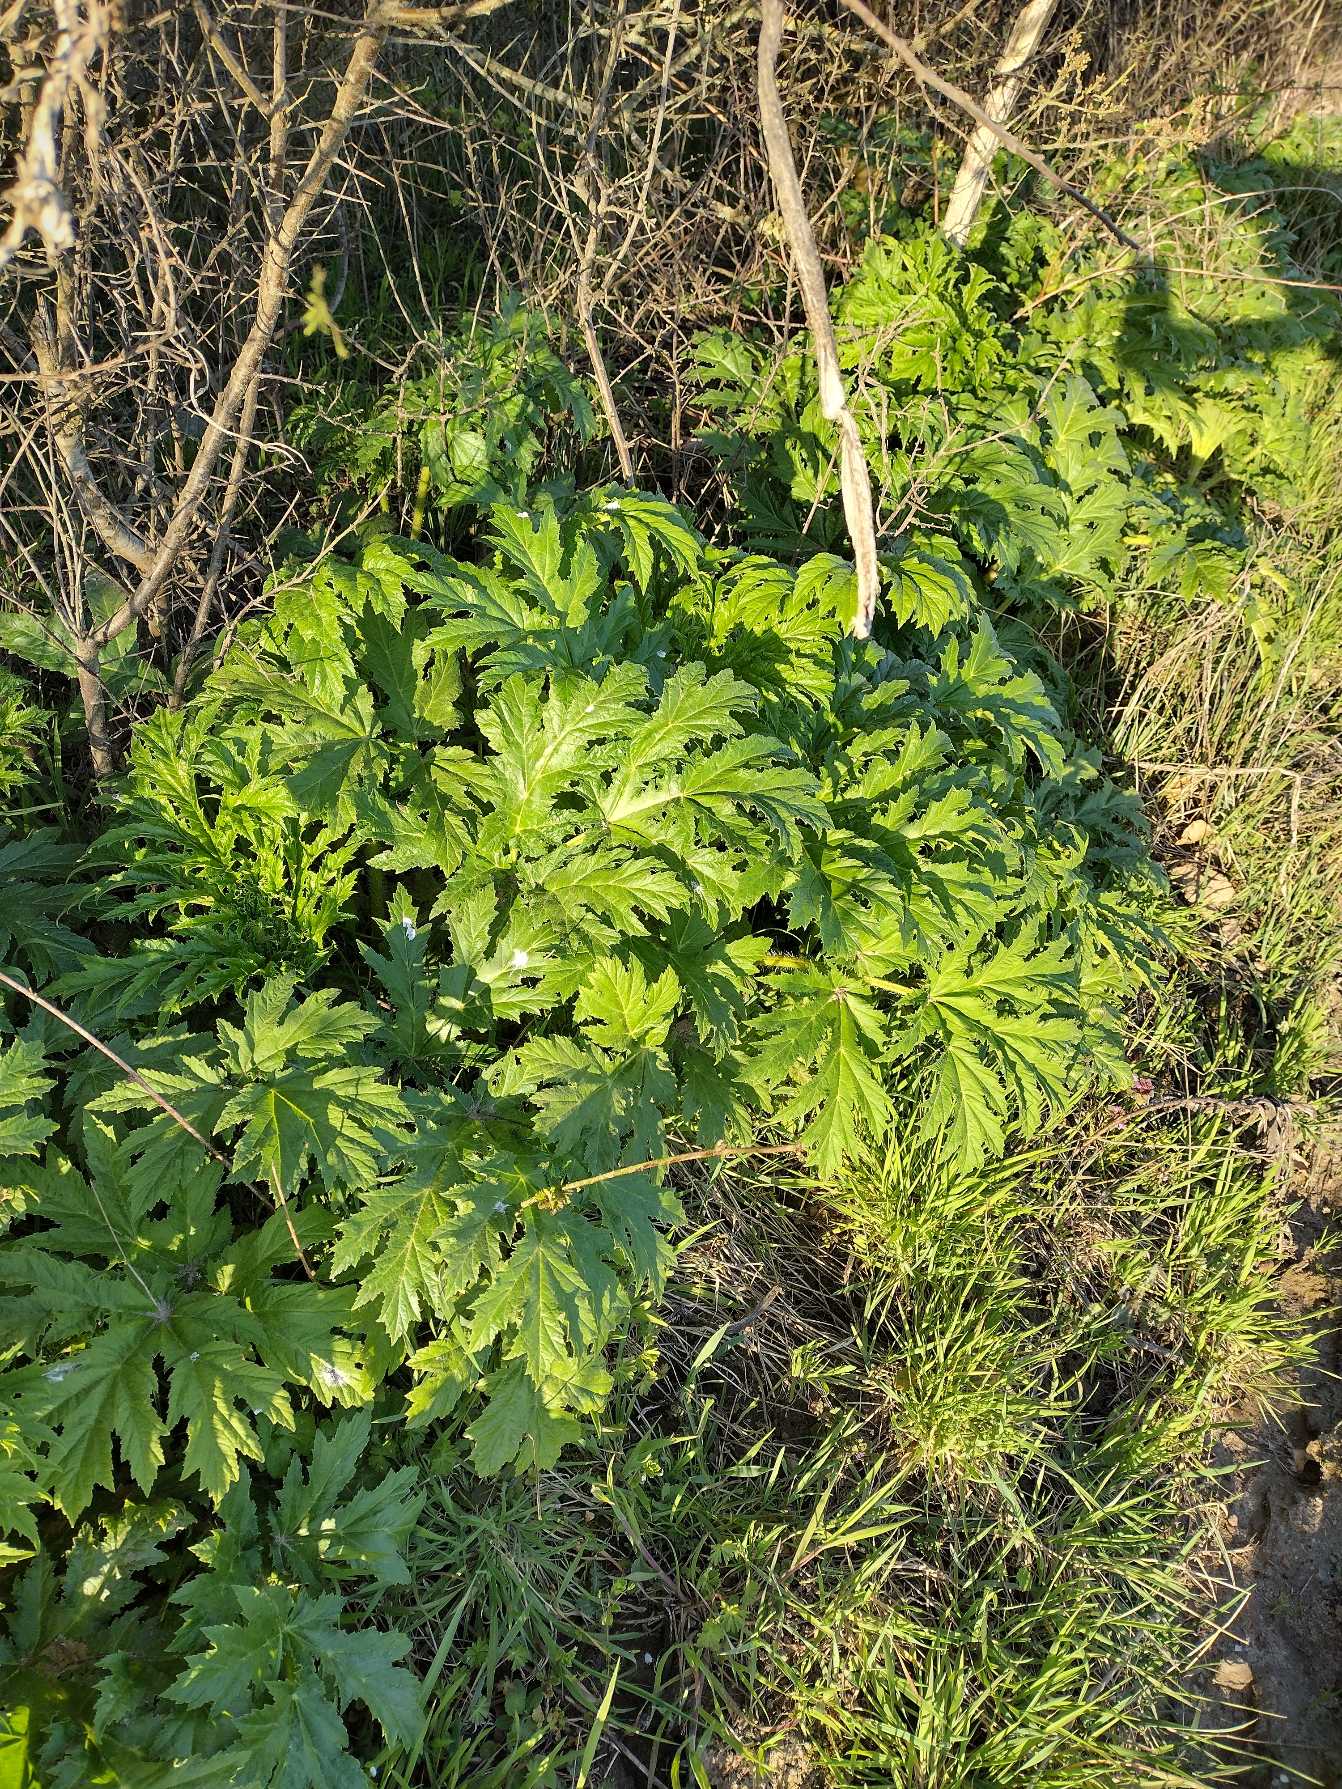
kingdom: Plantae
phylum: Tracheophyta
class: Magnoliopsida
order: Apiales
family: Apiaceae
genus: Heracleum
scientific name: Heracleum mantegazzianum
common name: Kæmpe-bjørneklo
